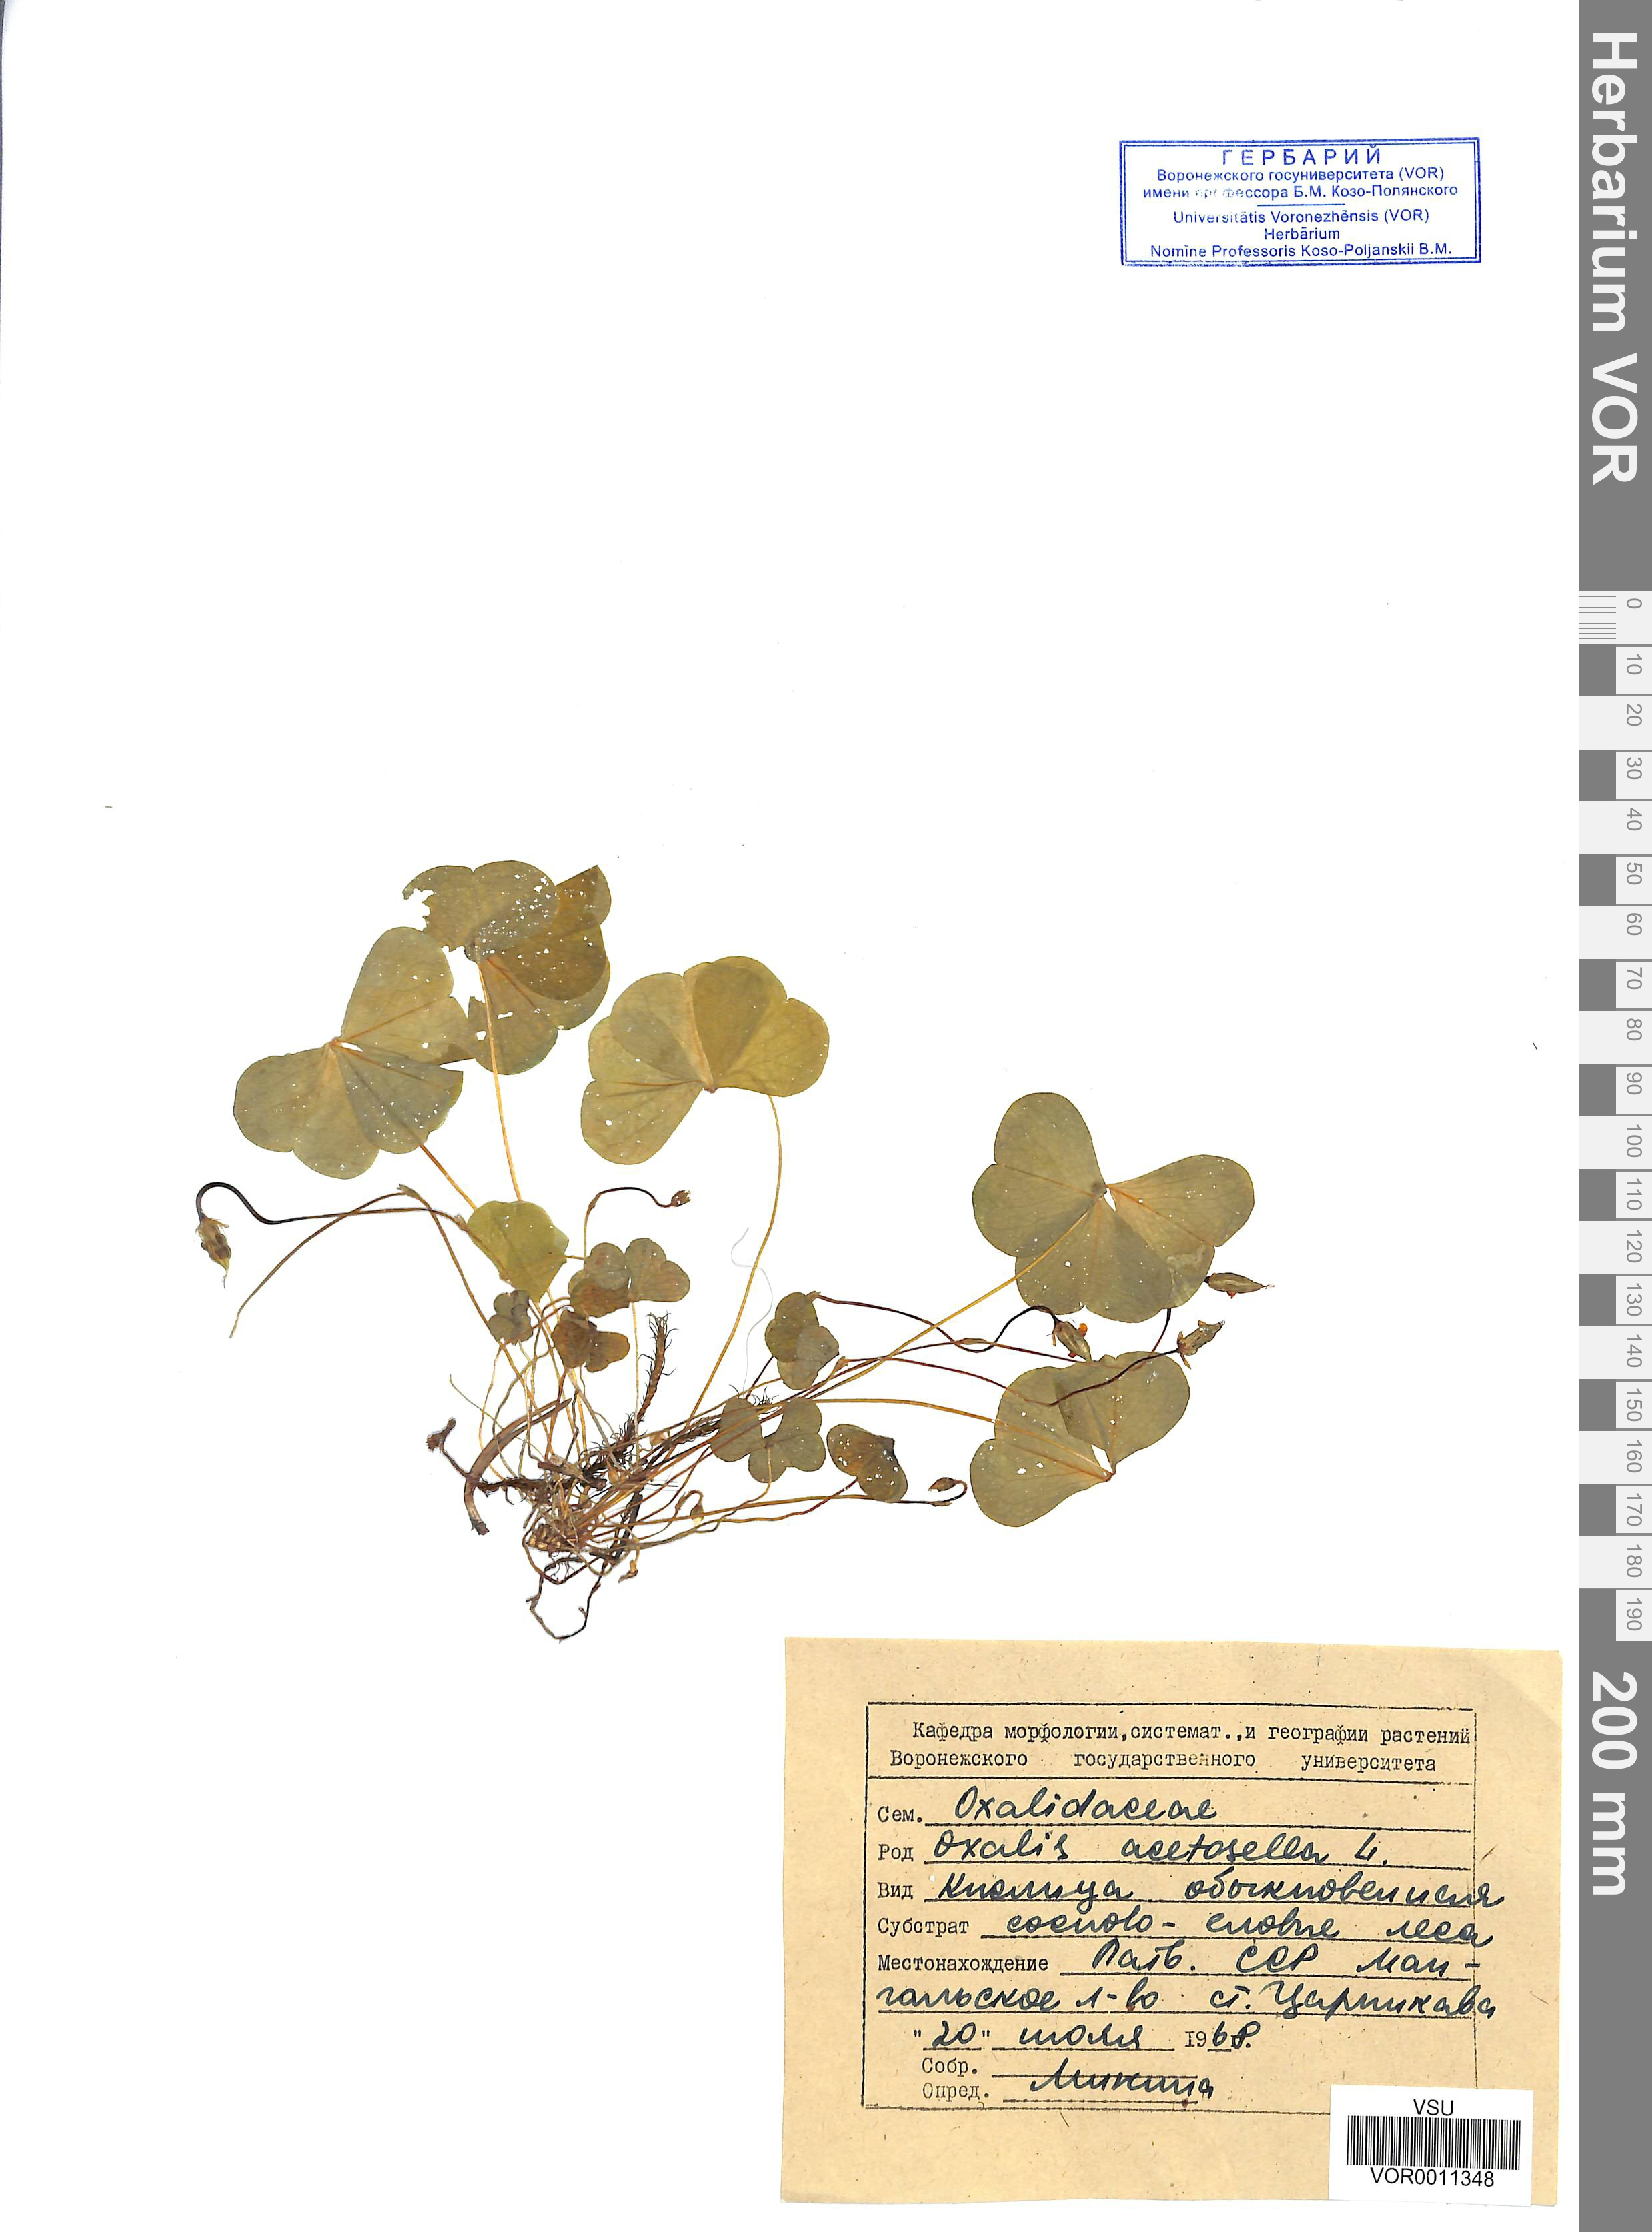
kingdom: Plantae
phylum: Tracheophyta
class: Magnoliopsida
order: Oxalidales
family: Oxalidaceae
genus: Oxalis
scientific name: Oxalis acetosella
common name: Wood-sorrel
